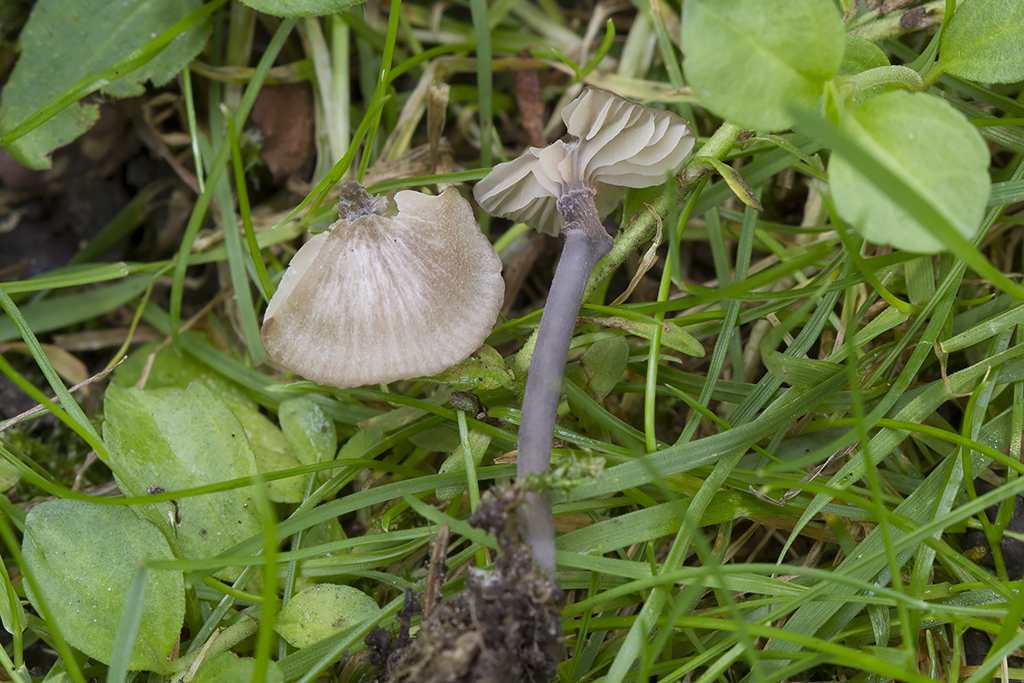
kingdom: Fungi
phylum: Basidiomycota
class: Agaricomycetes
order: Agaricales
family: Entolomataceae
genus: Entoloma
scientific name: Entoloma incarnatofuscescens
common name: tragt-rødblad
